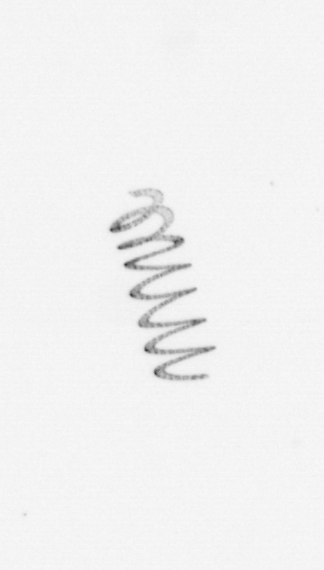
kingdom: Chromista
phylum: Ochrophyta
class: Bacillariophyceae
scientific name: Bacillariophyceae
